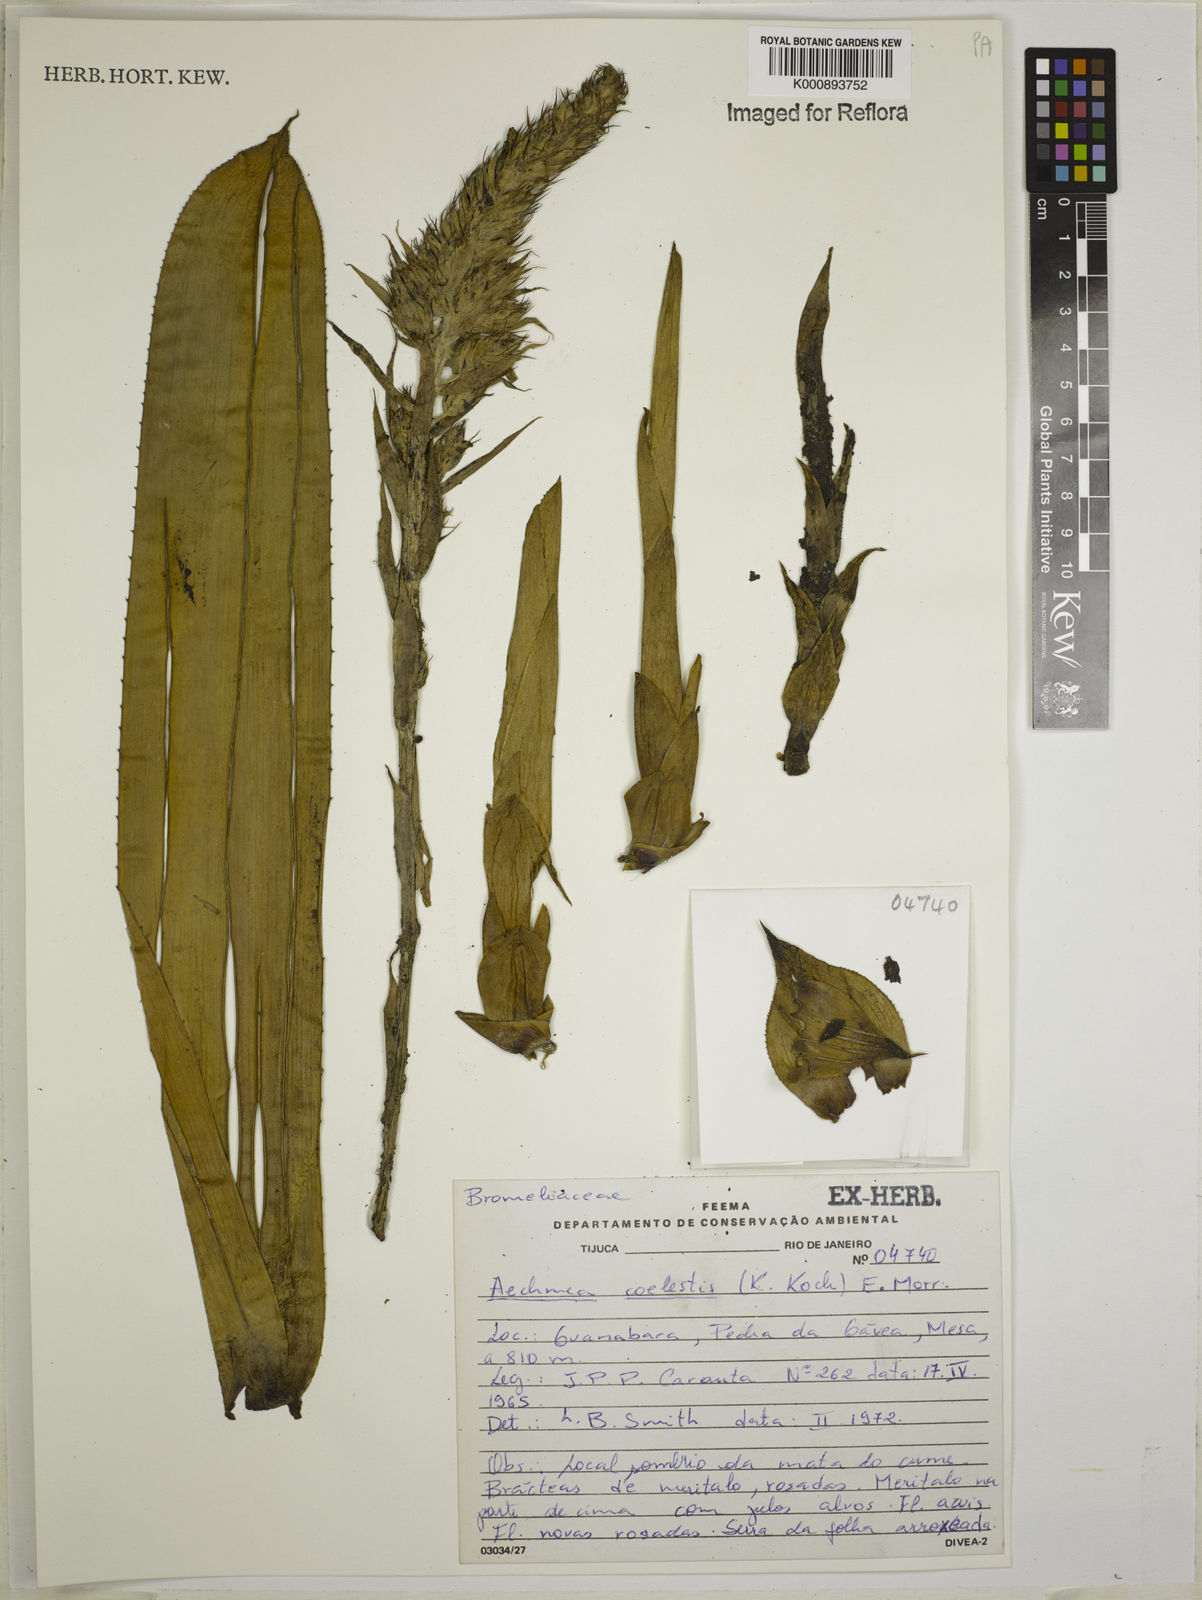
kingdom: Plantae
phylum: Tracheophyta
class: Liliopsida
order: Poales
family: Bromeliaceae
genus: Aechmea
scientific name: Aechmea coelestis
